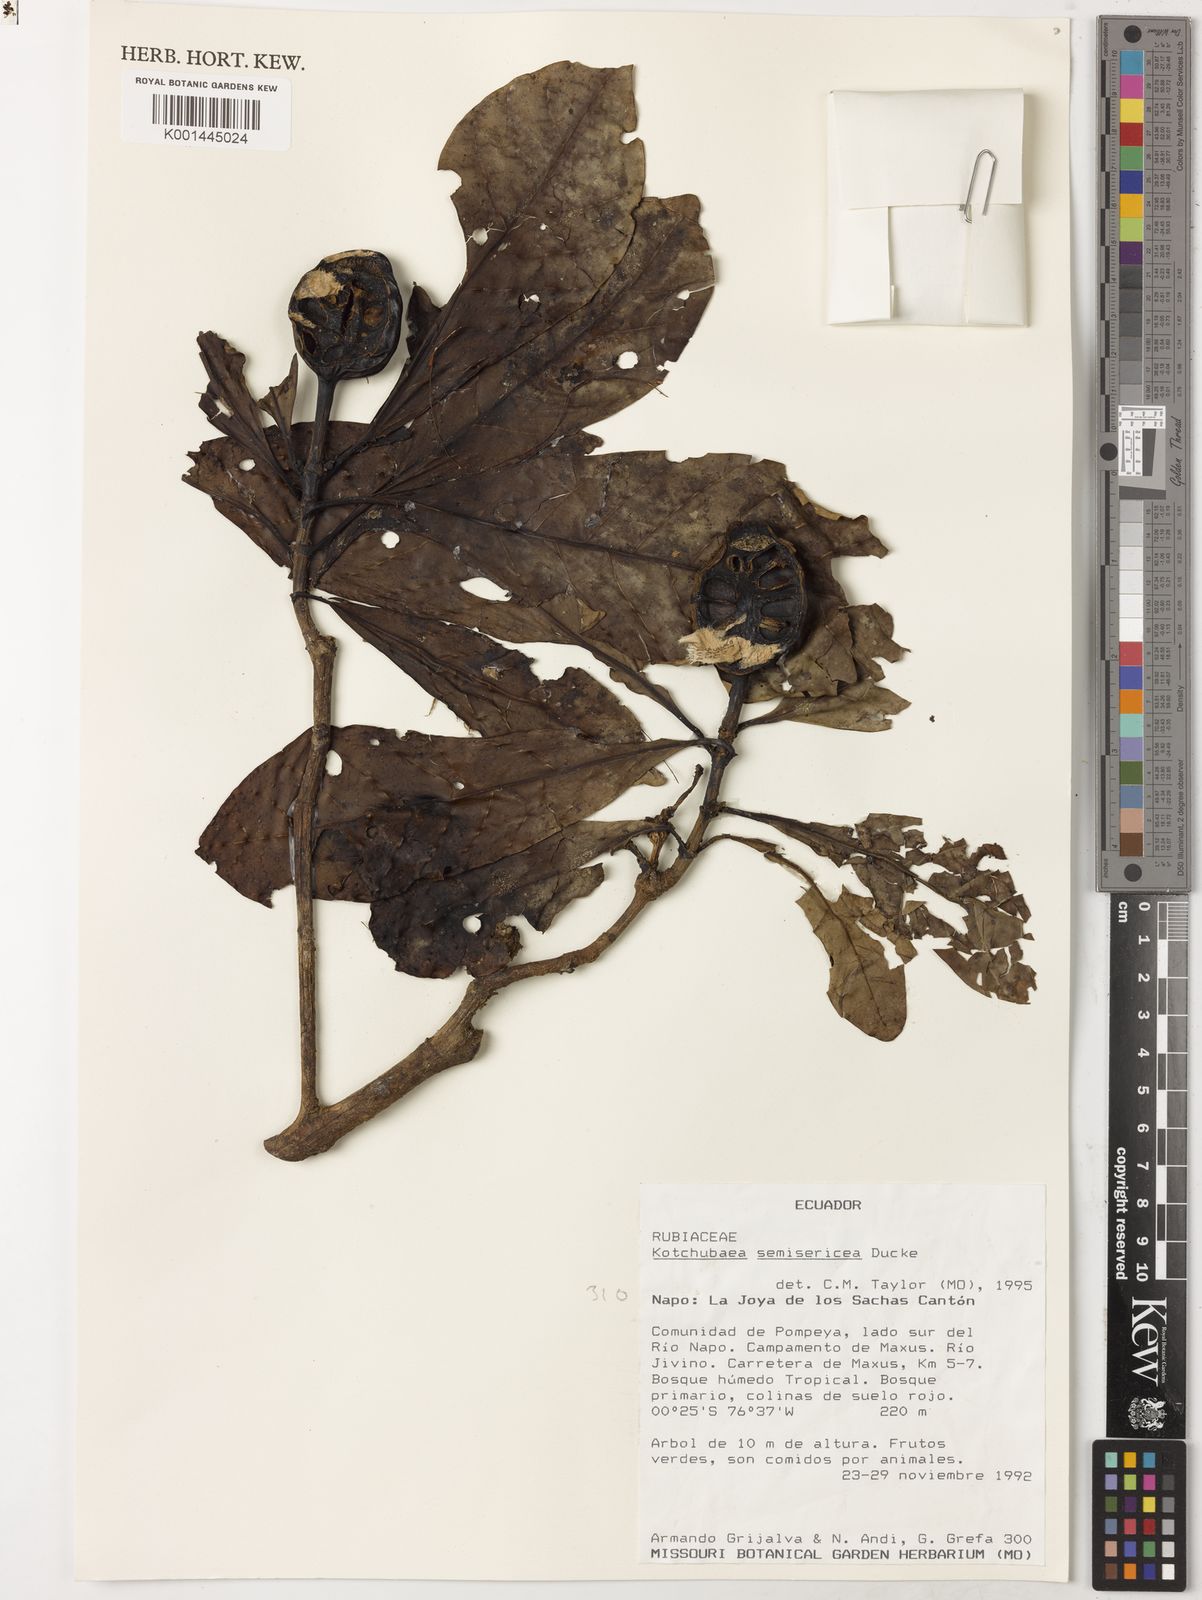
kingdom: Plantae
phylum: Tracheophyta
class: Magnoliopsida
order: Gentianales
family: Rubiaceae
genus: Kutchubaea
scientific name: Kutchubaea
